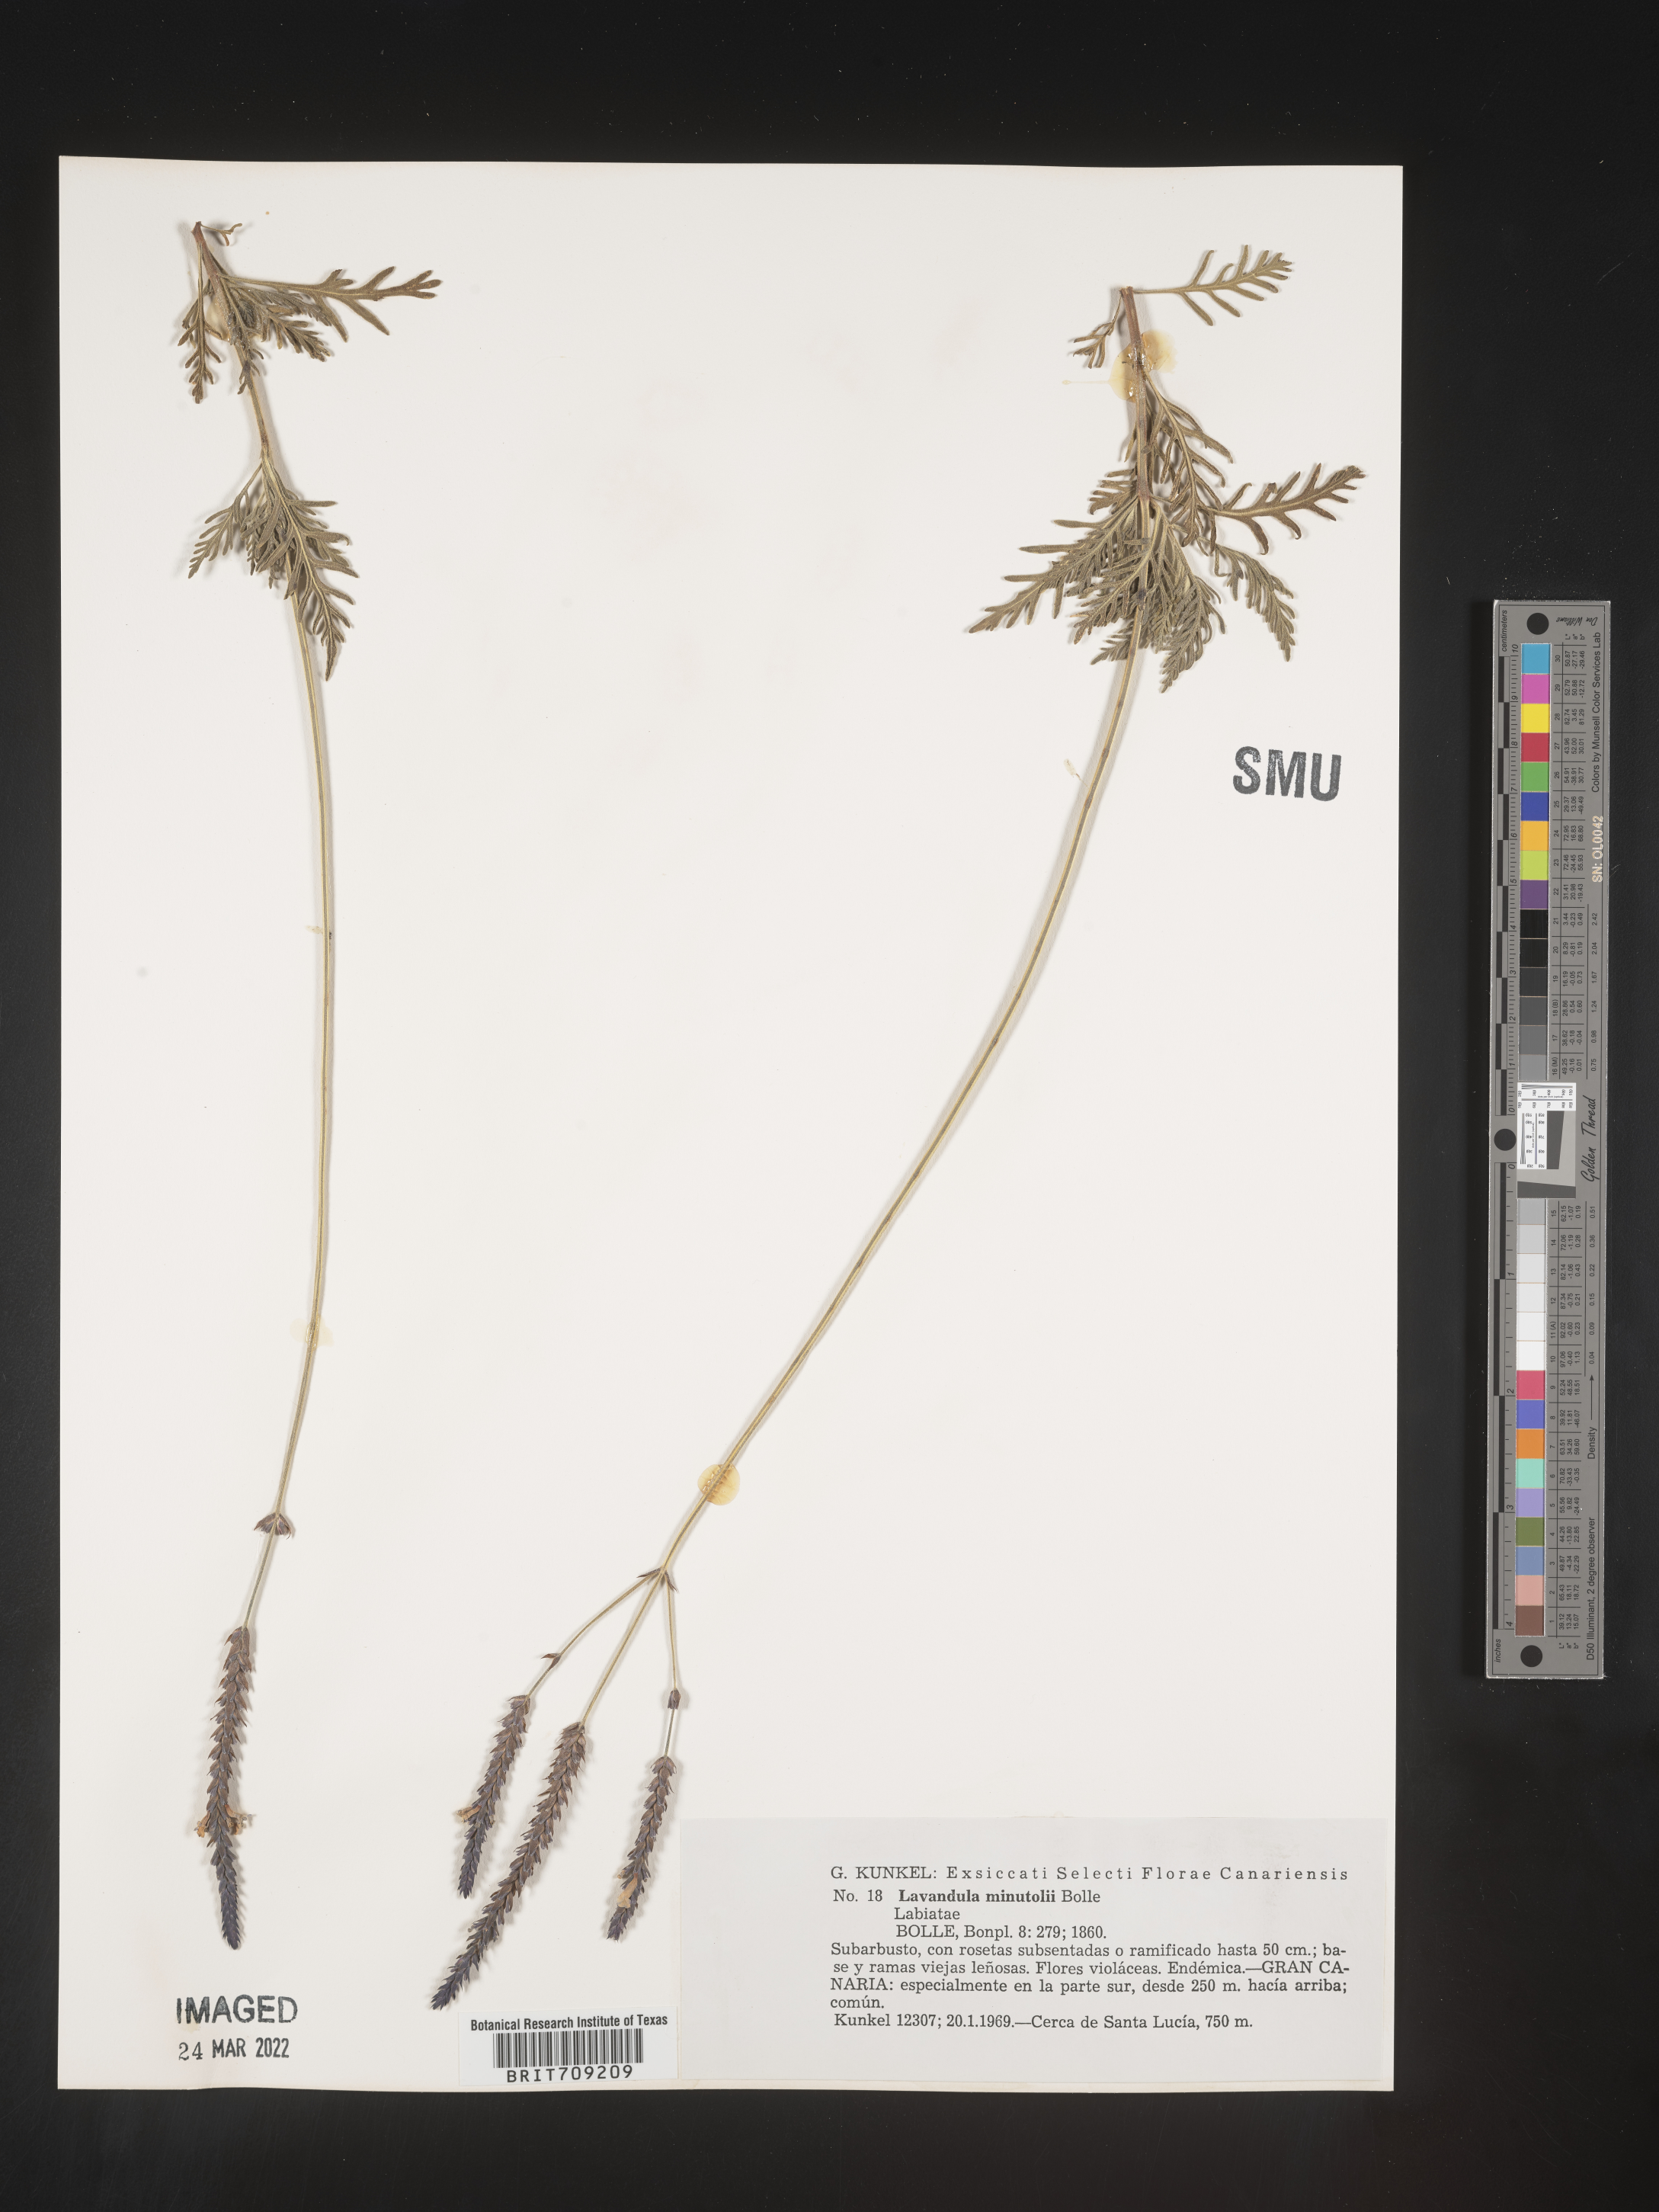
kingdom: Plantae
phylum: Tracheophyta
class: Magnoliopsida
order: Lamiales
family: Lamiaceae
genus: Lavandula
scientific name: Lavandula
